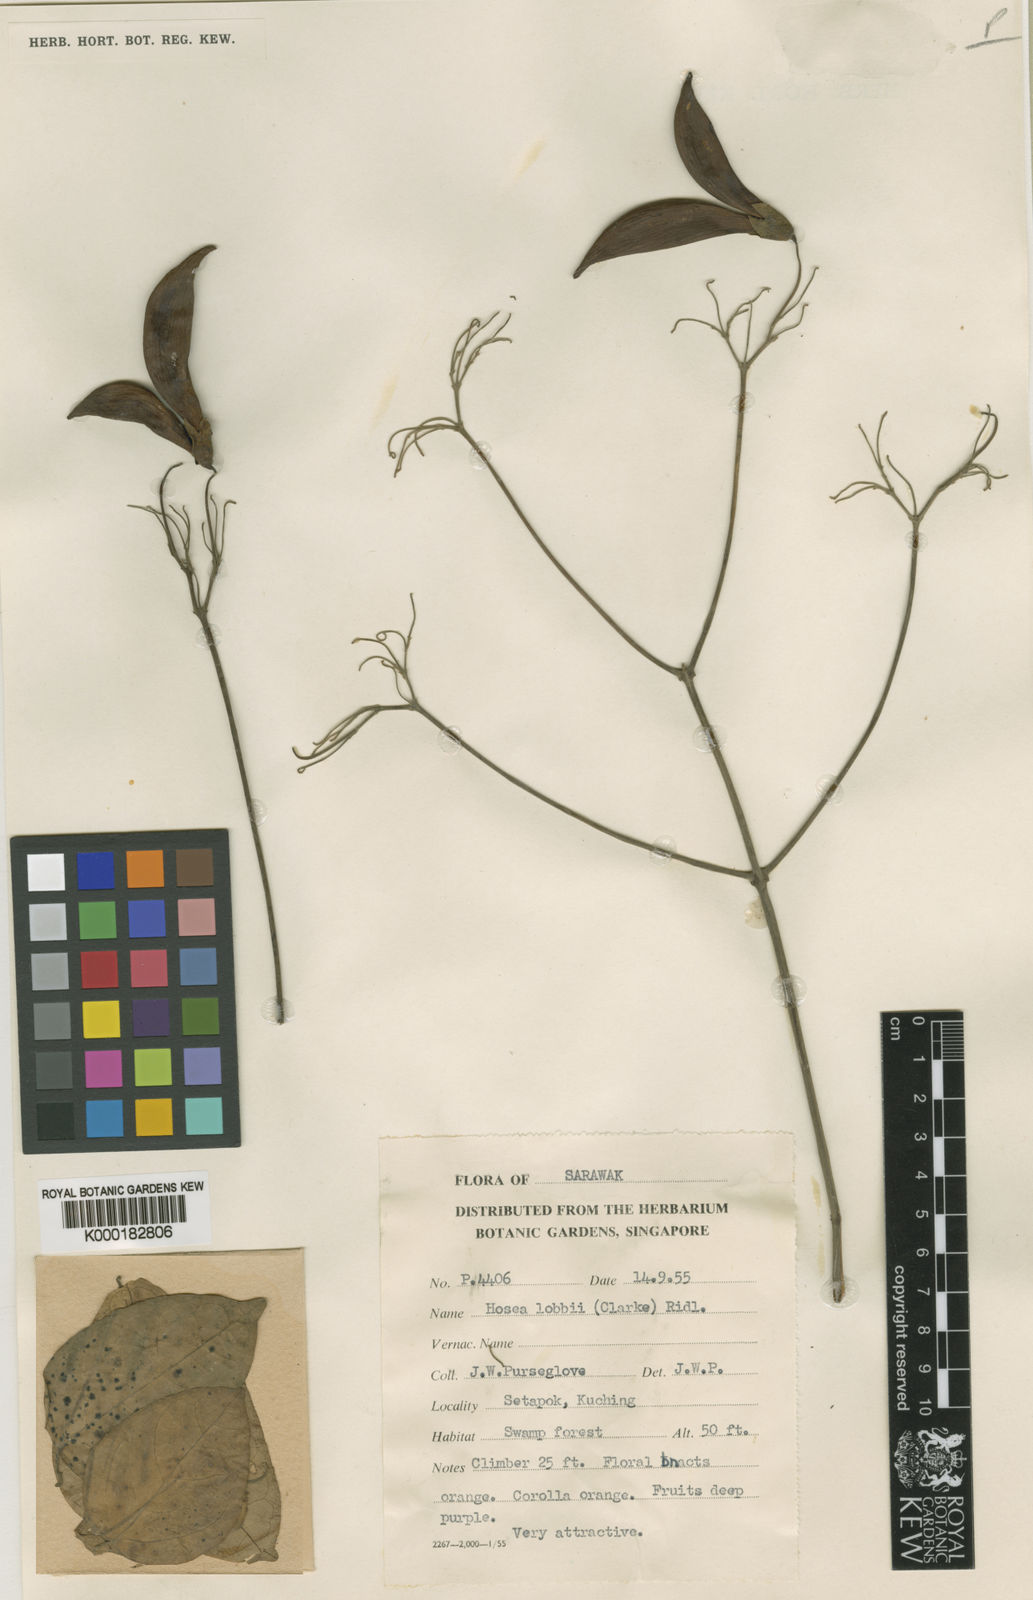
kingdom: Plantae
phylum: Tracheophyta
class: Magnoliopsida
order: Lamiales
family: Lamiaceae
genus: Hosea
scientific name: Hosea lobbii
